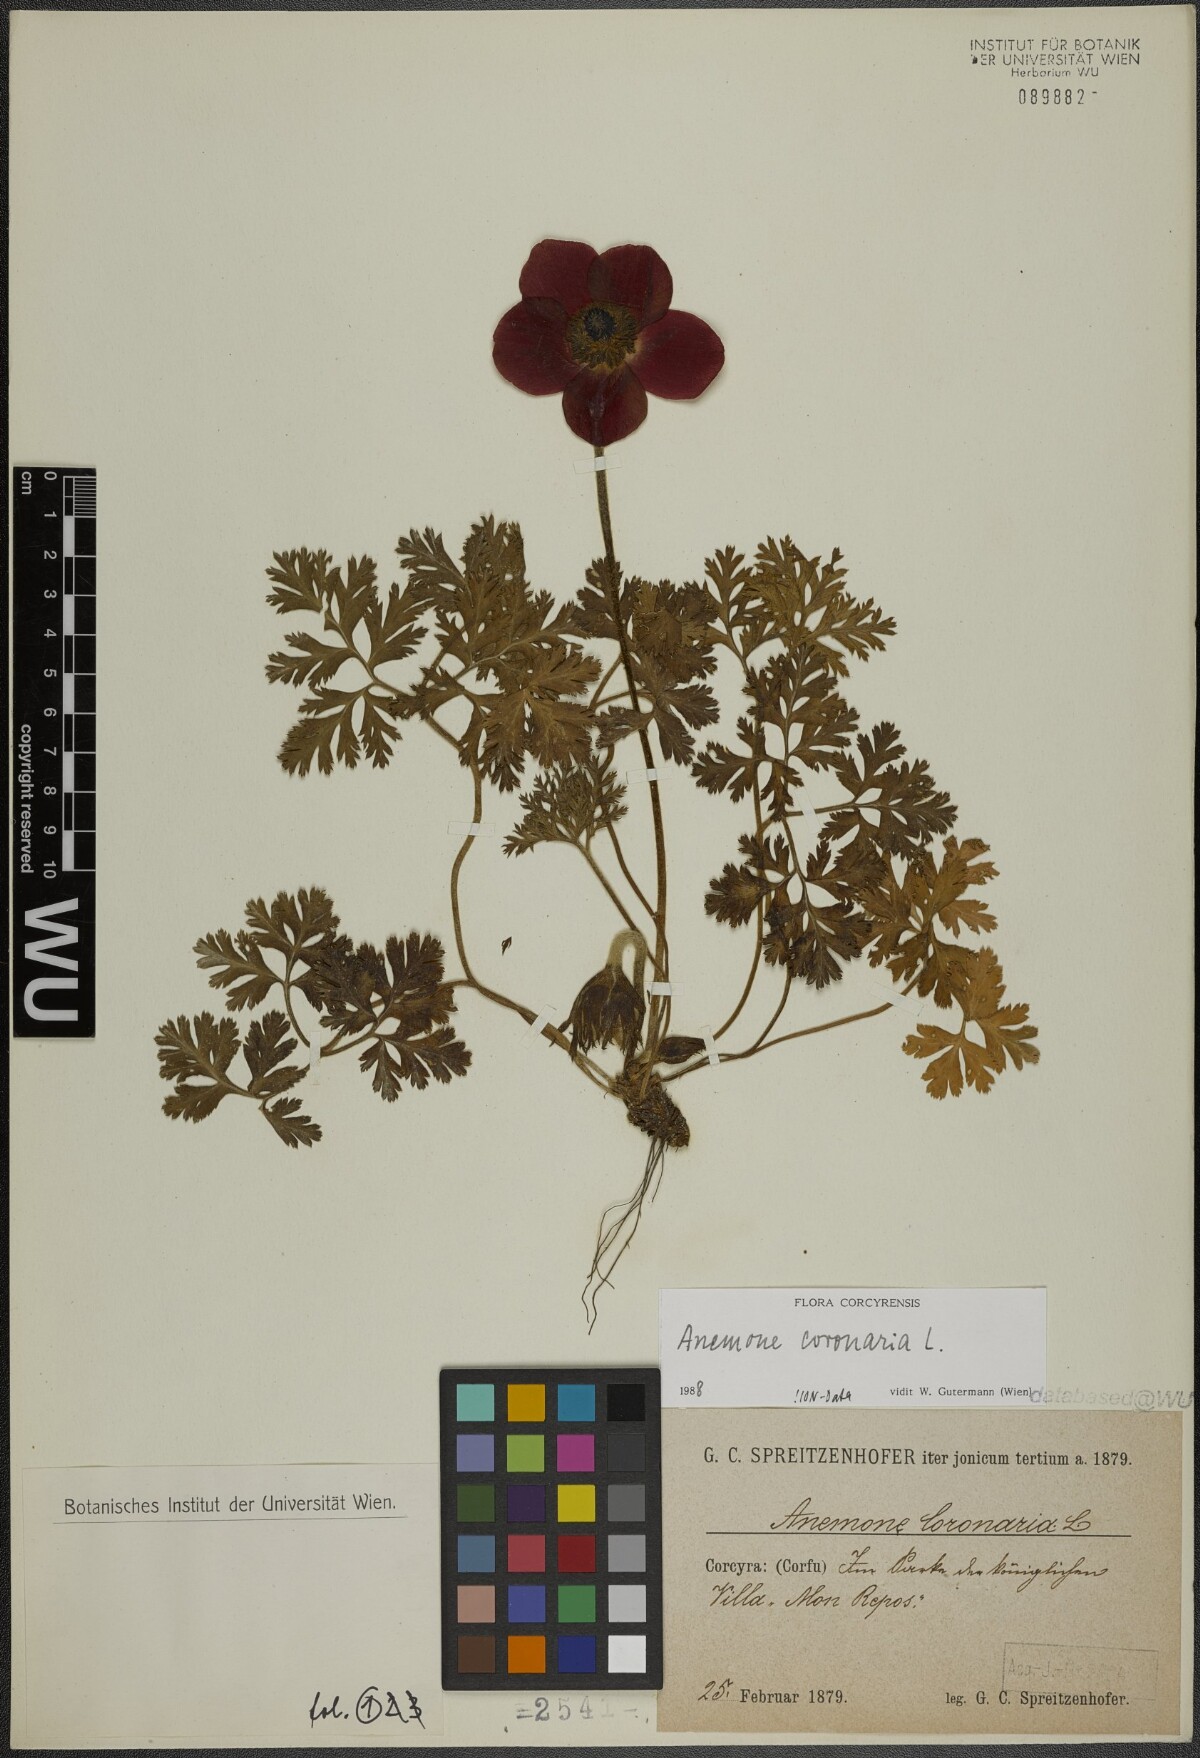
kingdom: Plantae
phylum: Tracheophyta
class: Magnoliopsida
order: Ranunculales
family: Ranunculaceae
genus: Anemone
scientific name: Anemone coronaria
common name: Poppy anemone
